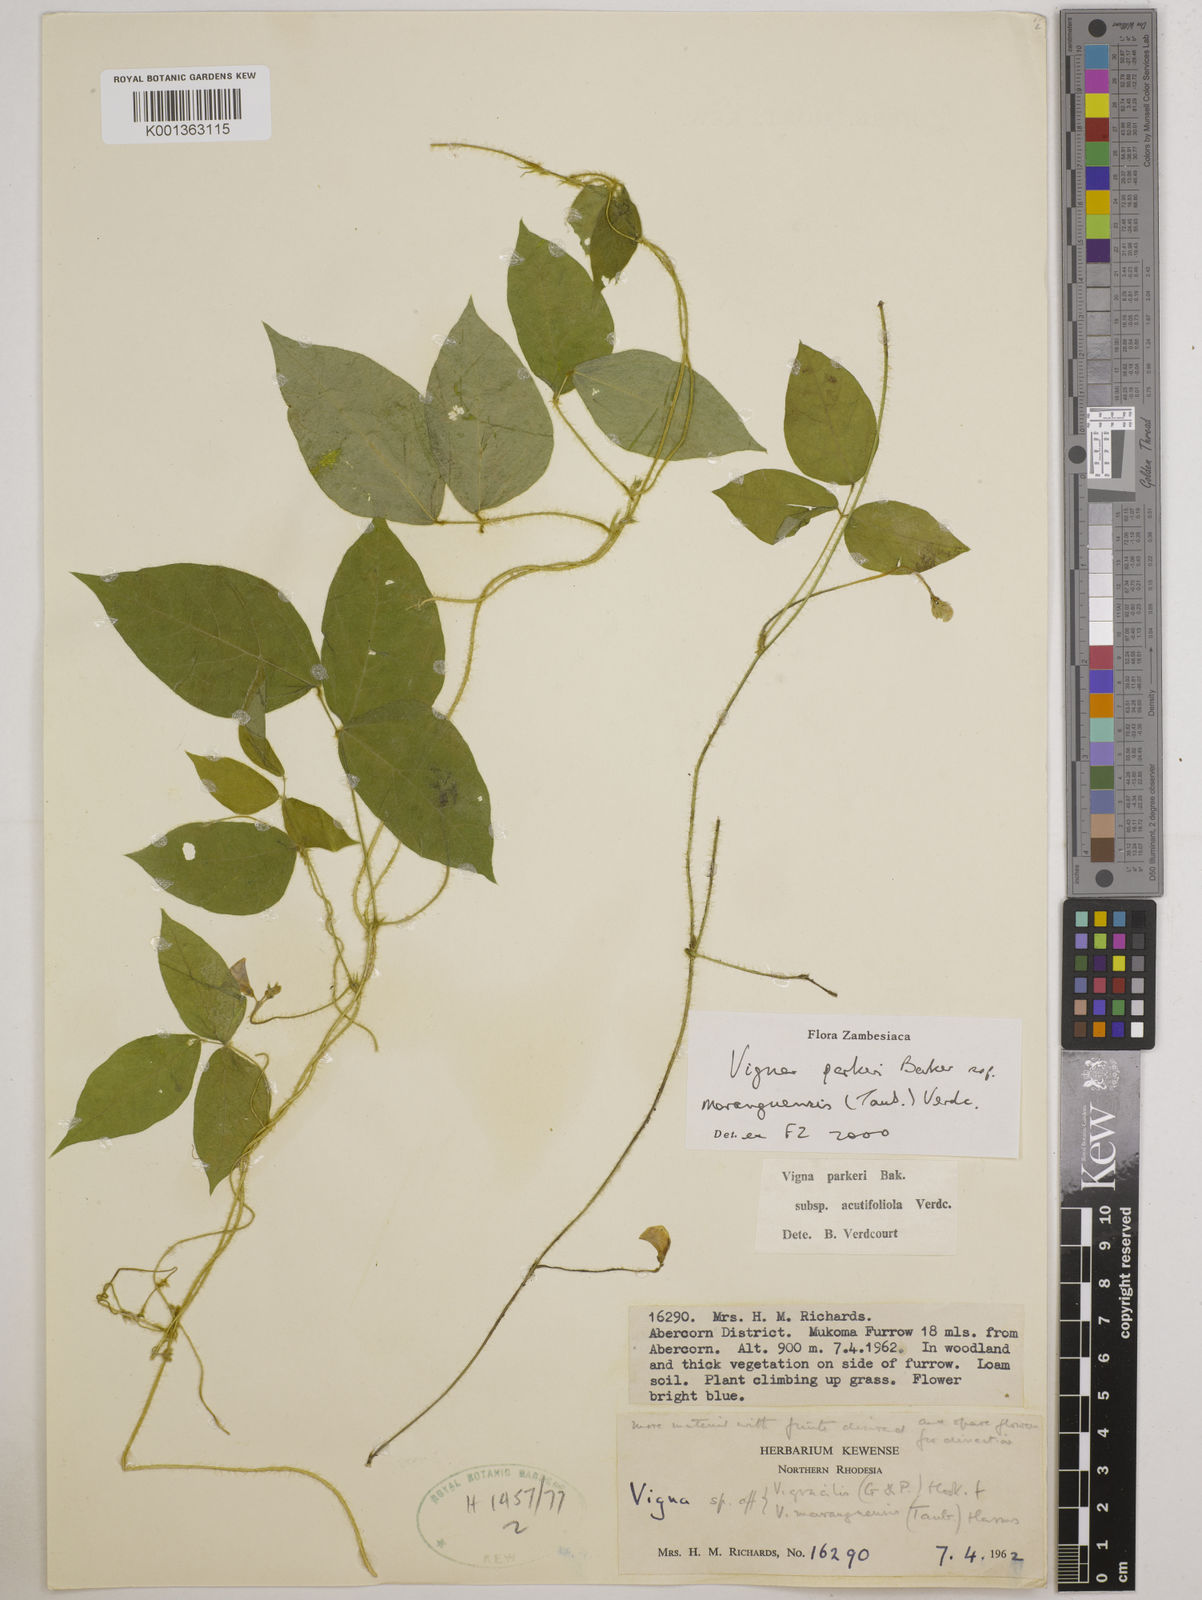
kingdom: Plantae
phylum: Tracheophyta
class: Magnoliopsida
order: Fabales
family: Fabaceae
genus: Vigna
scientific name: Vigna
